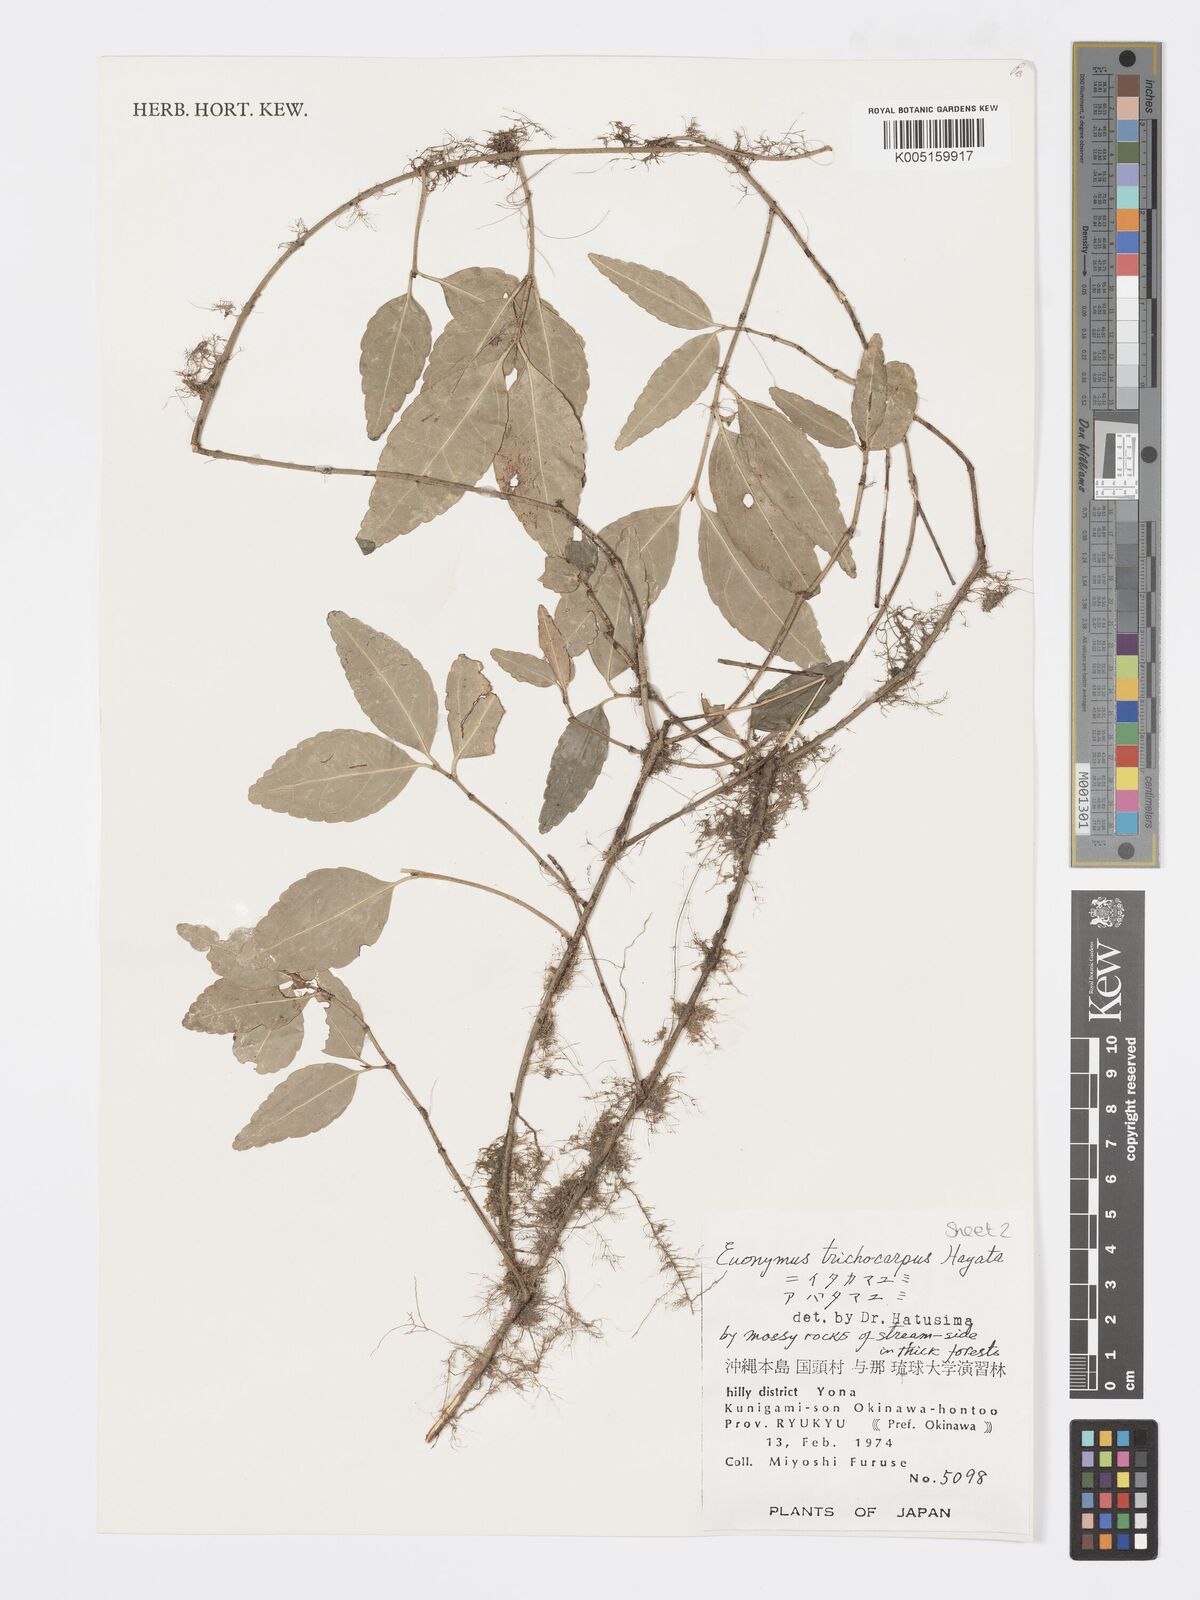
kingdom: Plantae
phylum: Tracheophyta
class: Magnoliopsida
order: Celastrales
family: Celastraceae
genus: Euonymus
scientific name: Euonymus echinatus
